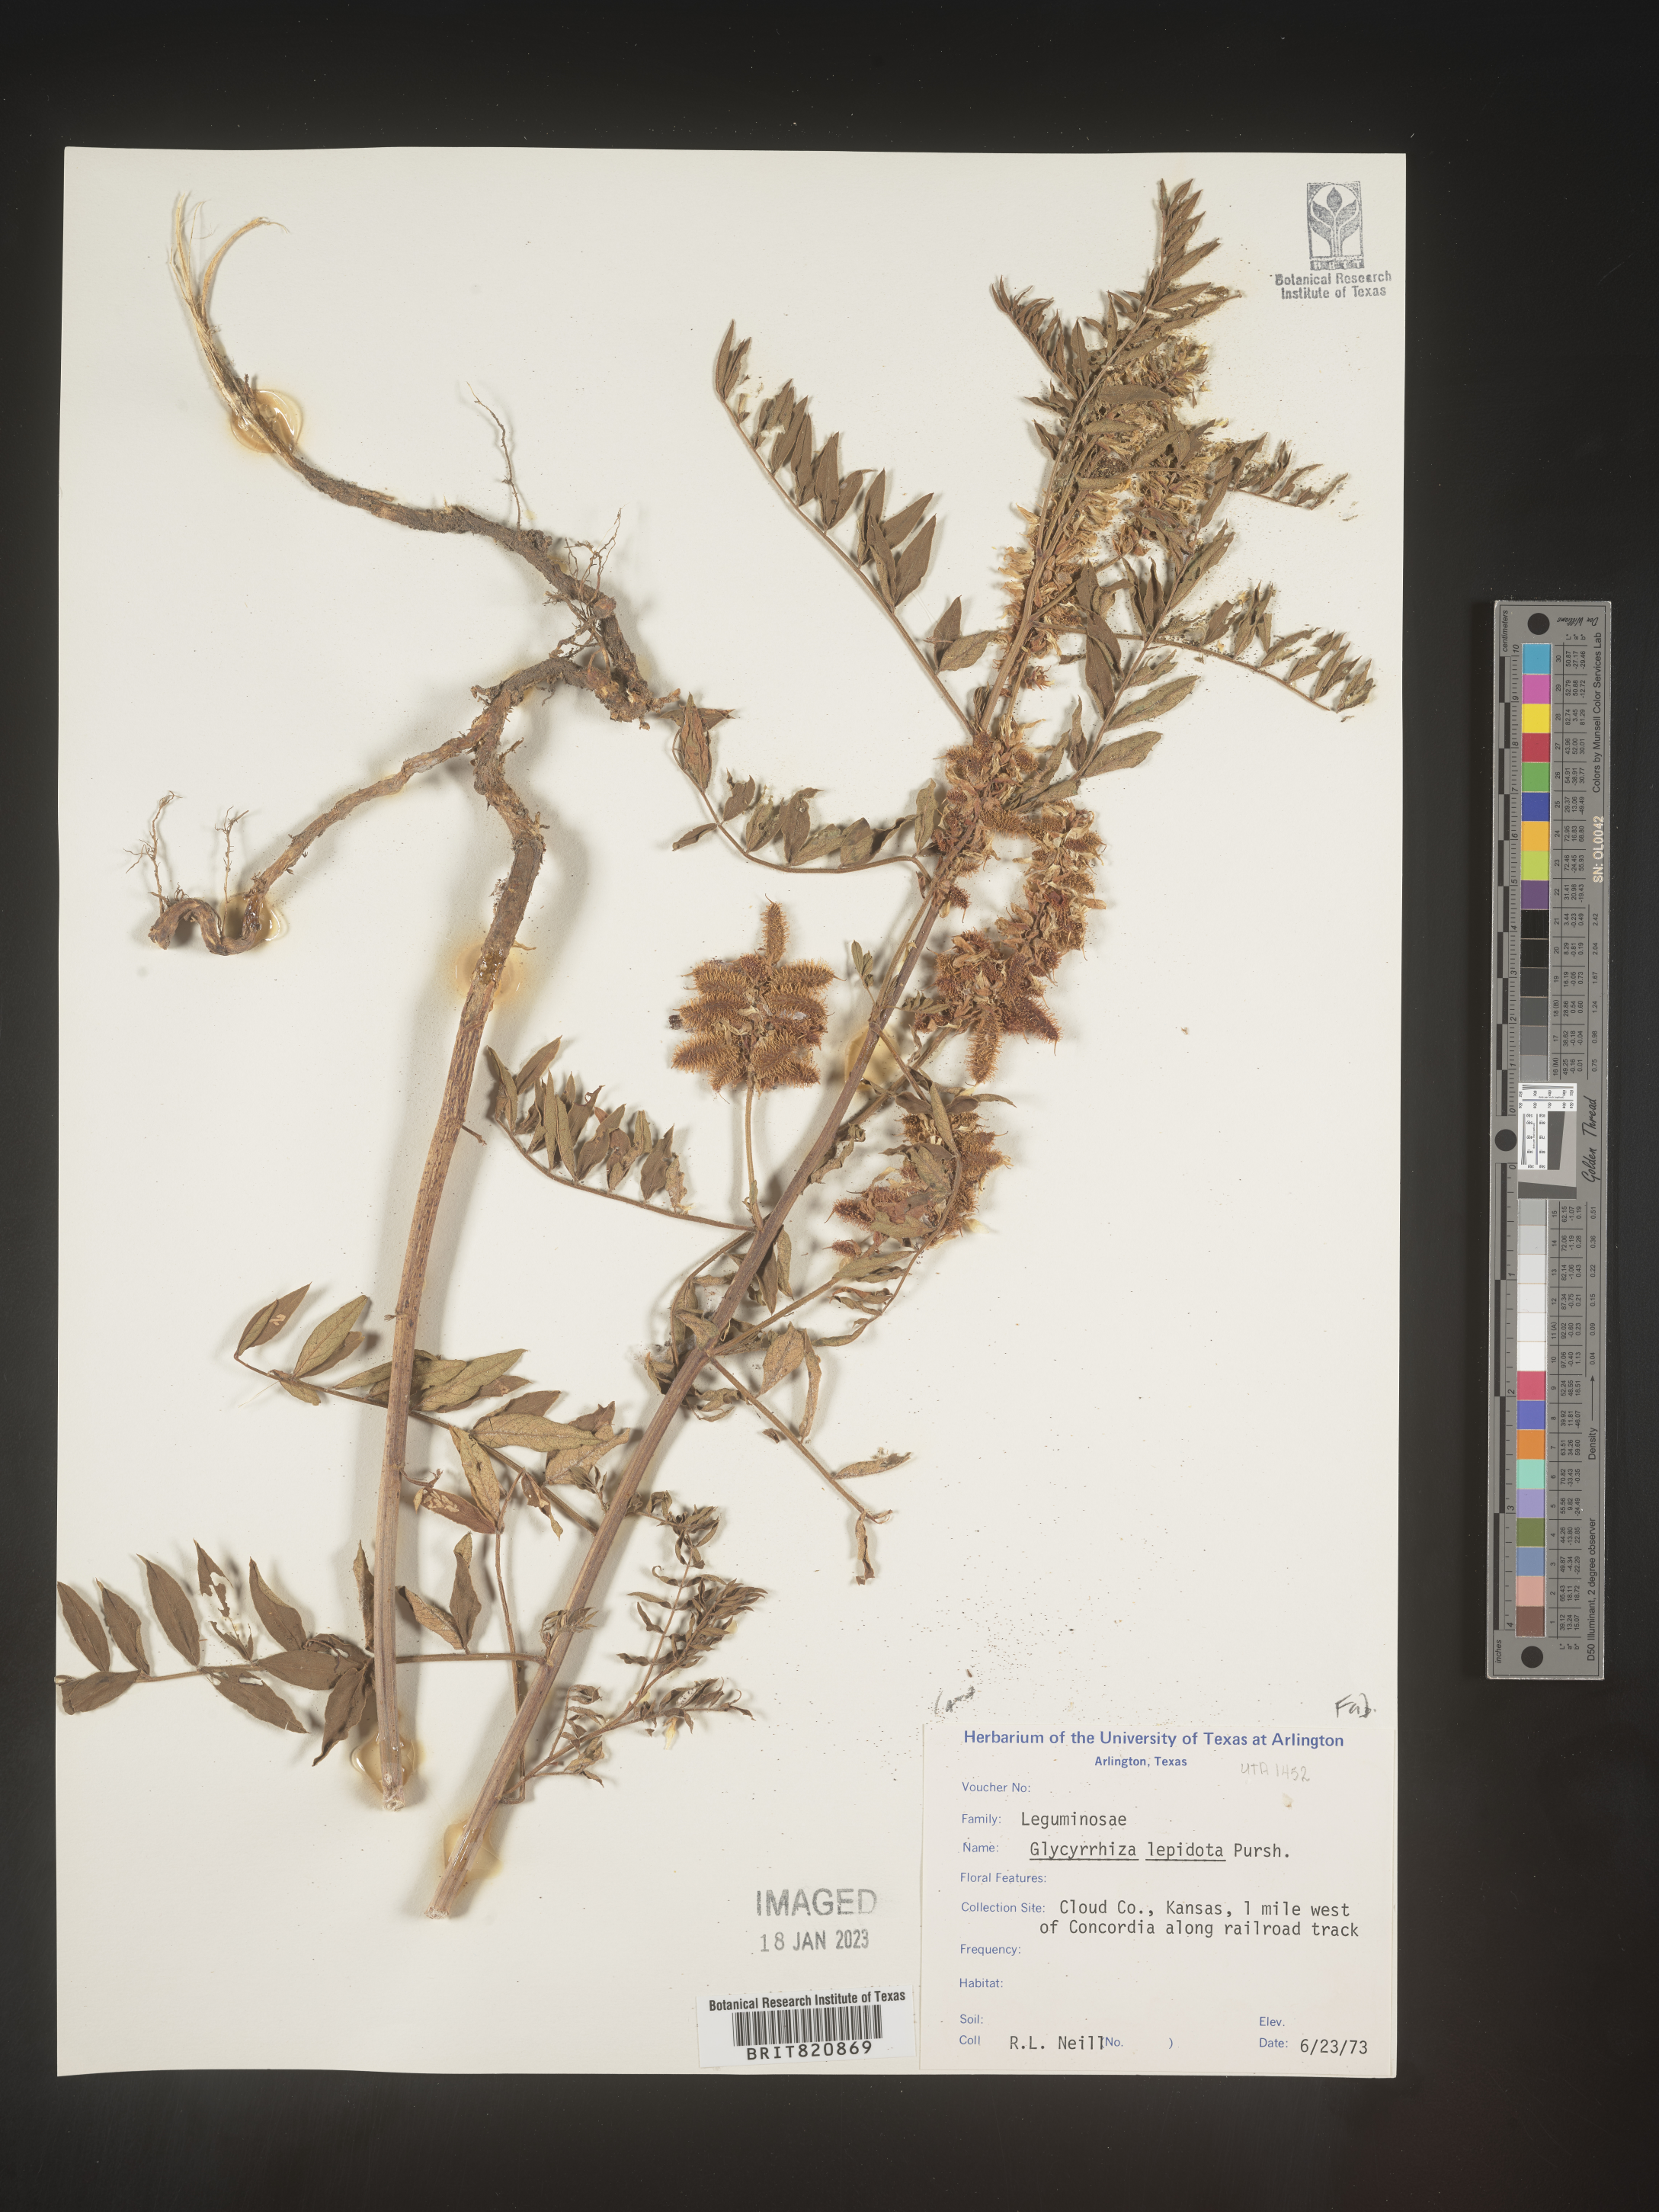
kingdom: Plantae
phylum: Tracheophyta
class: Magnoliopsida
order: Fabales
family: Fabaceae
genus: Glycyrrhiza
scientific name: Glycyrrhiza lepidota
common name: American liquorice
